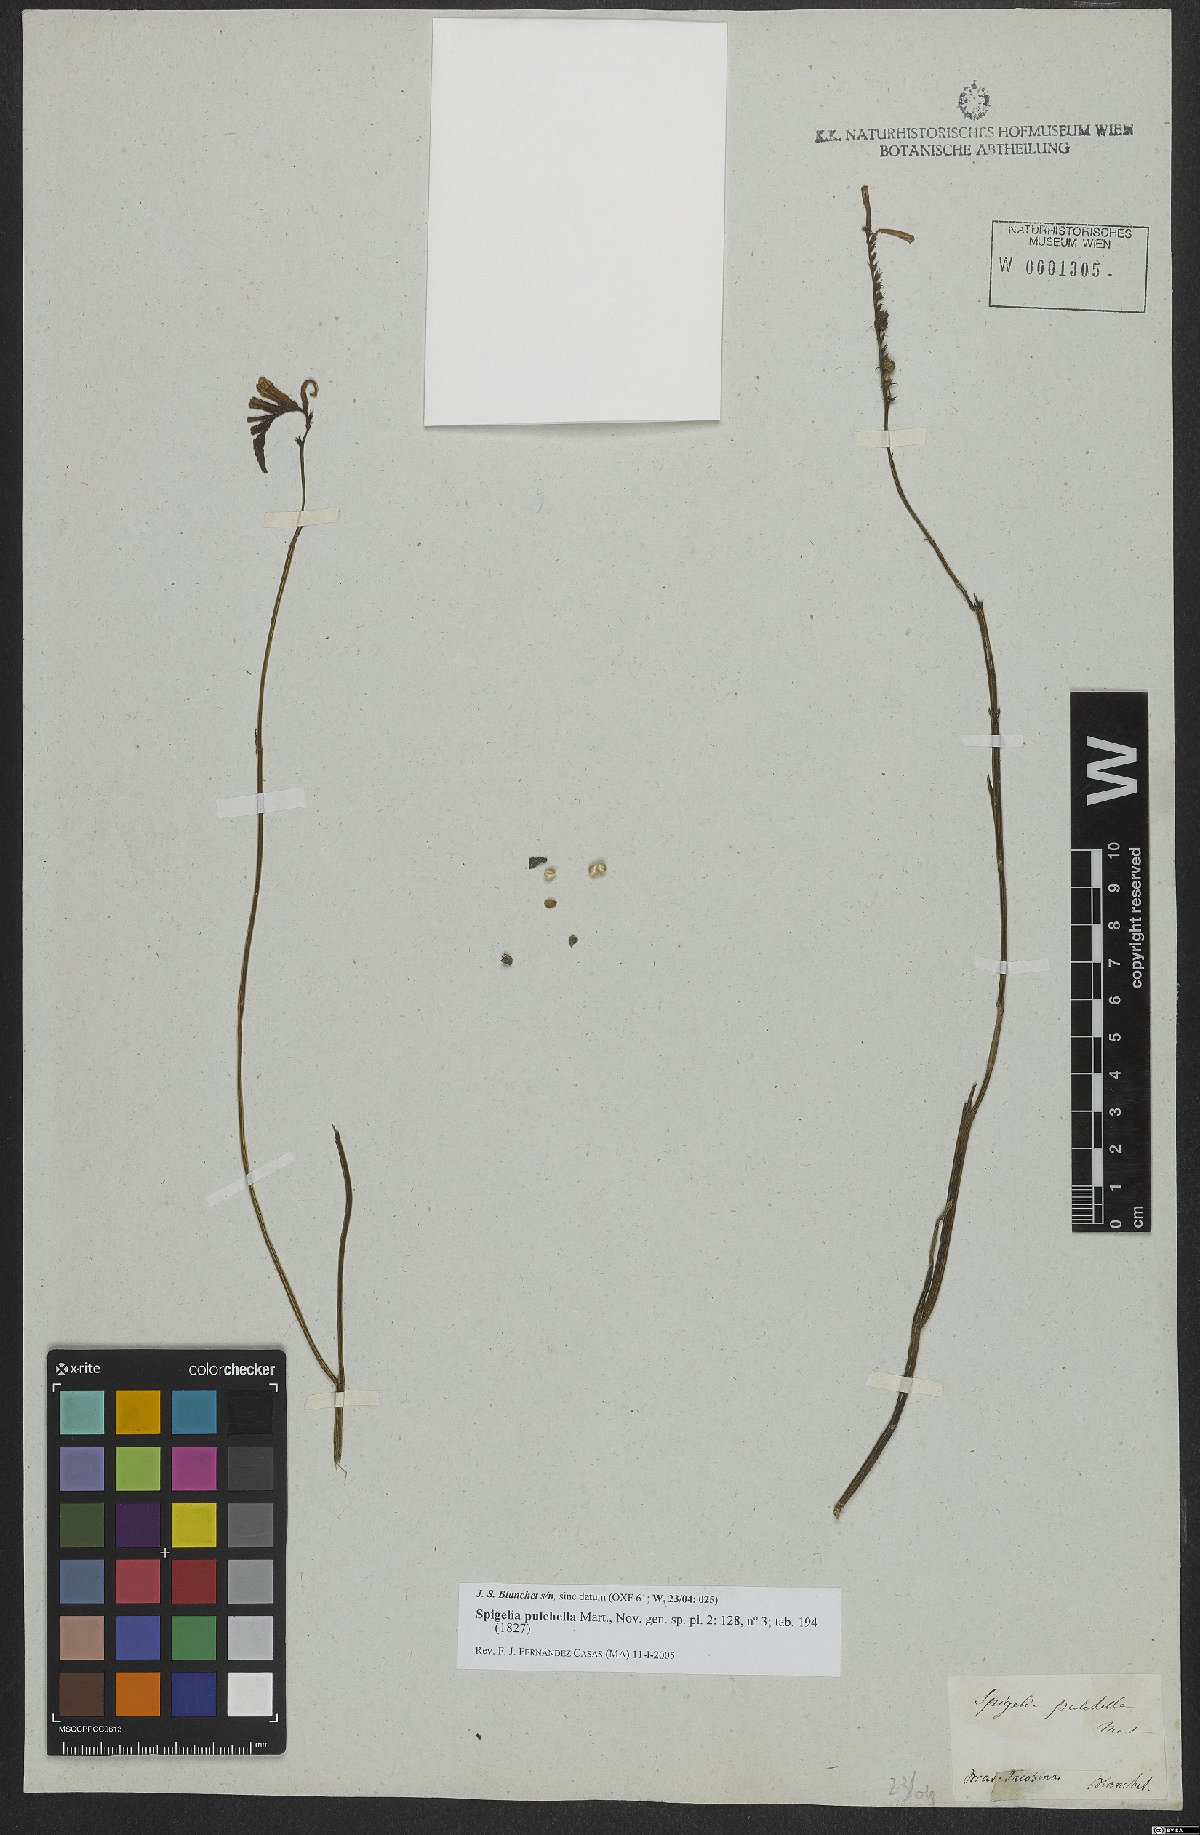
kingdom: Plantae
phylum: Tracheophyta
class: Magnoliopsida
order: Gentianales
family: Loganiaceae
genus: Spigelia
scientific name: Spigelia pulchella
